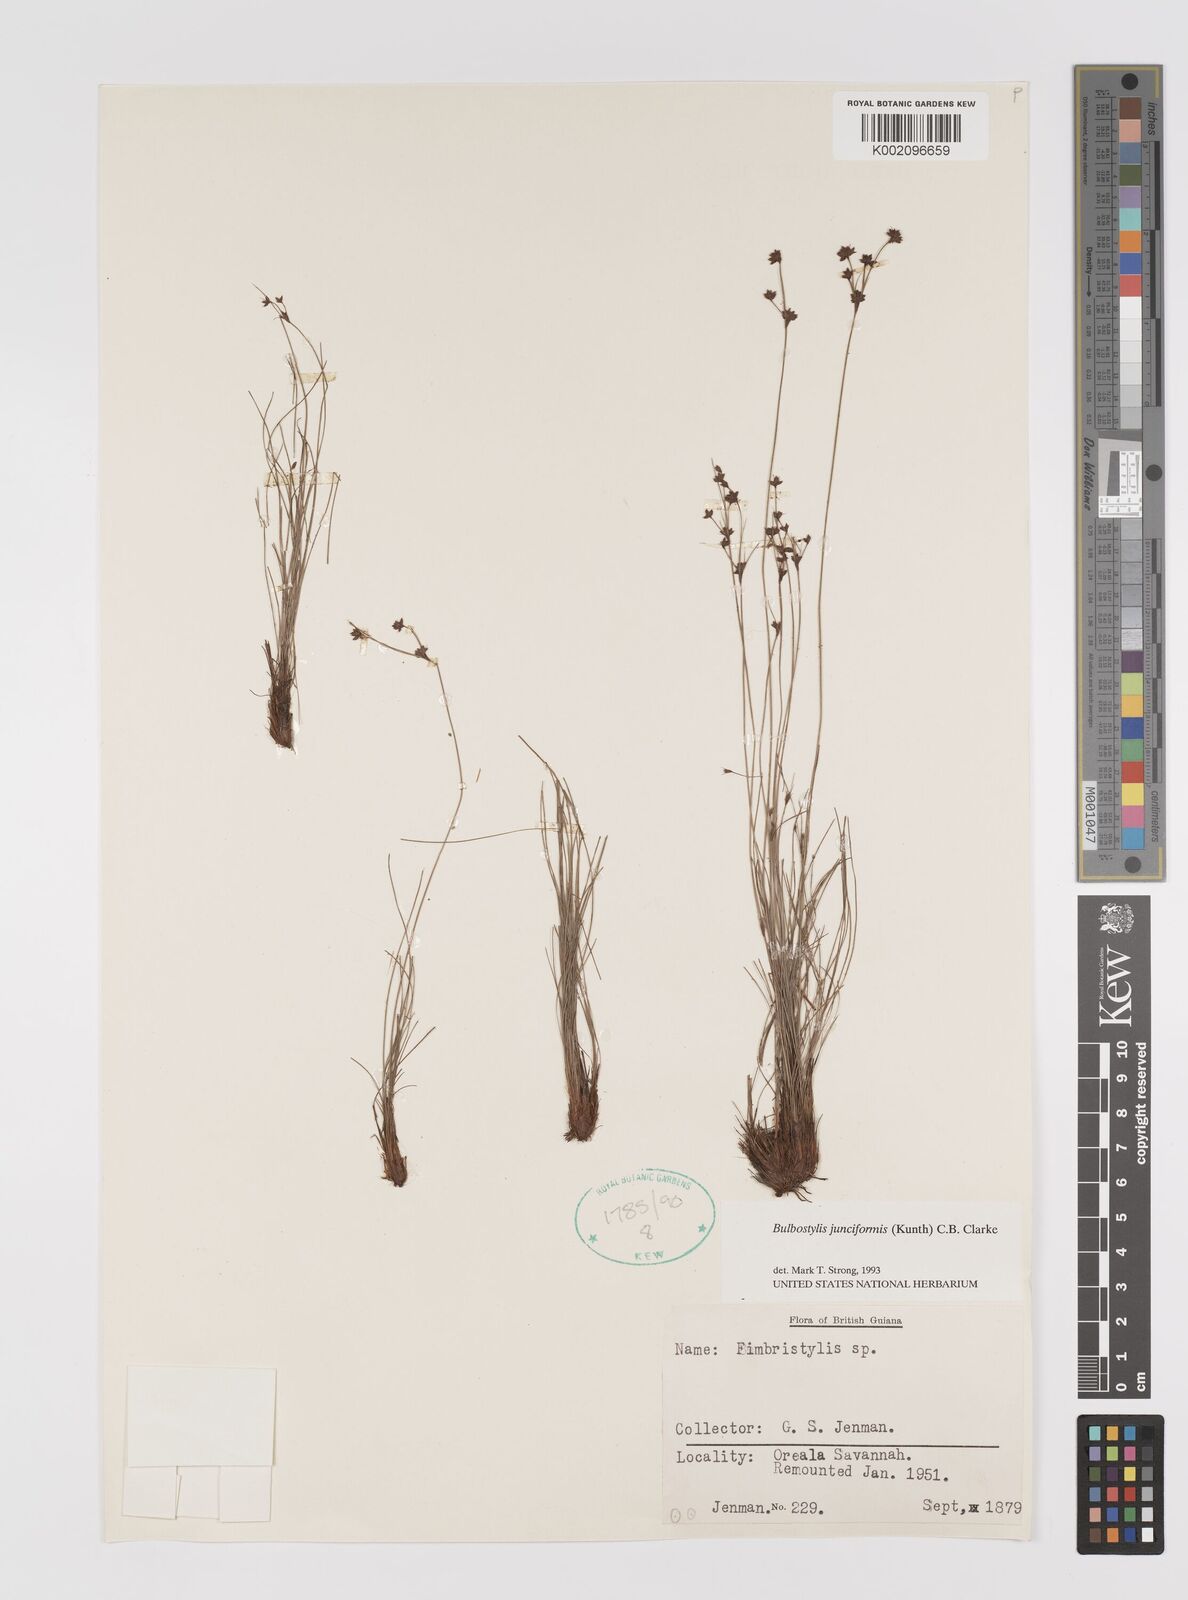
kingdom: Plantae
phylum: Tracheophyta
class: Liliopsida
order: Poales
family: Cyperaceae
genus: Bulbostylis
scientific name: Bulbostylis junciformis
